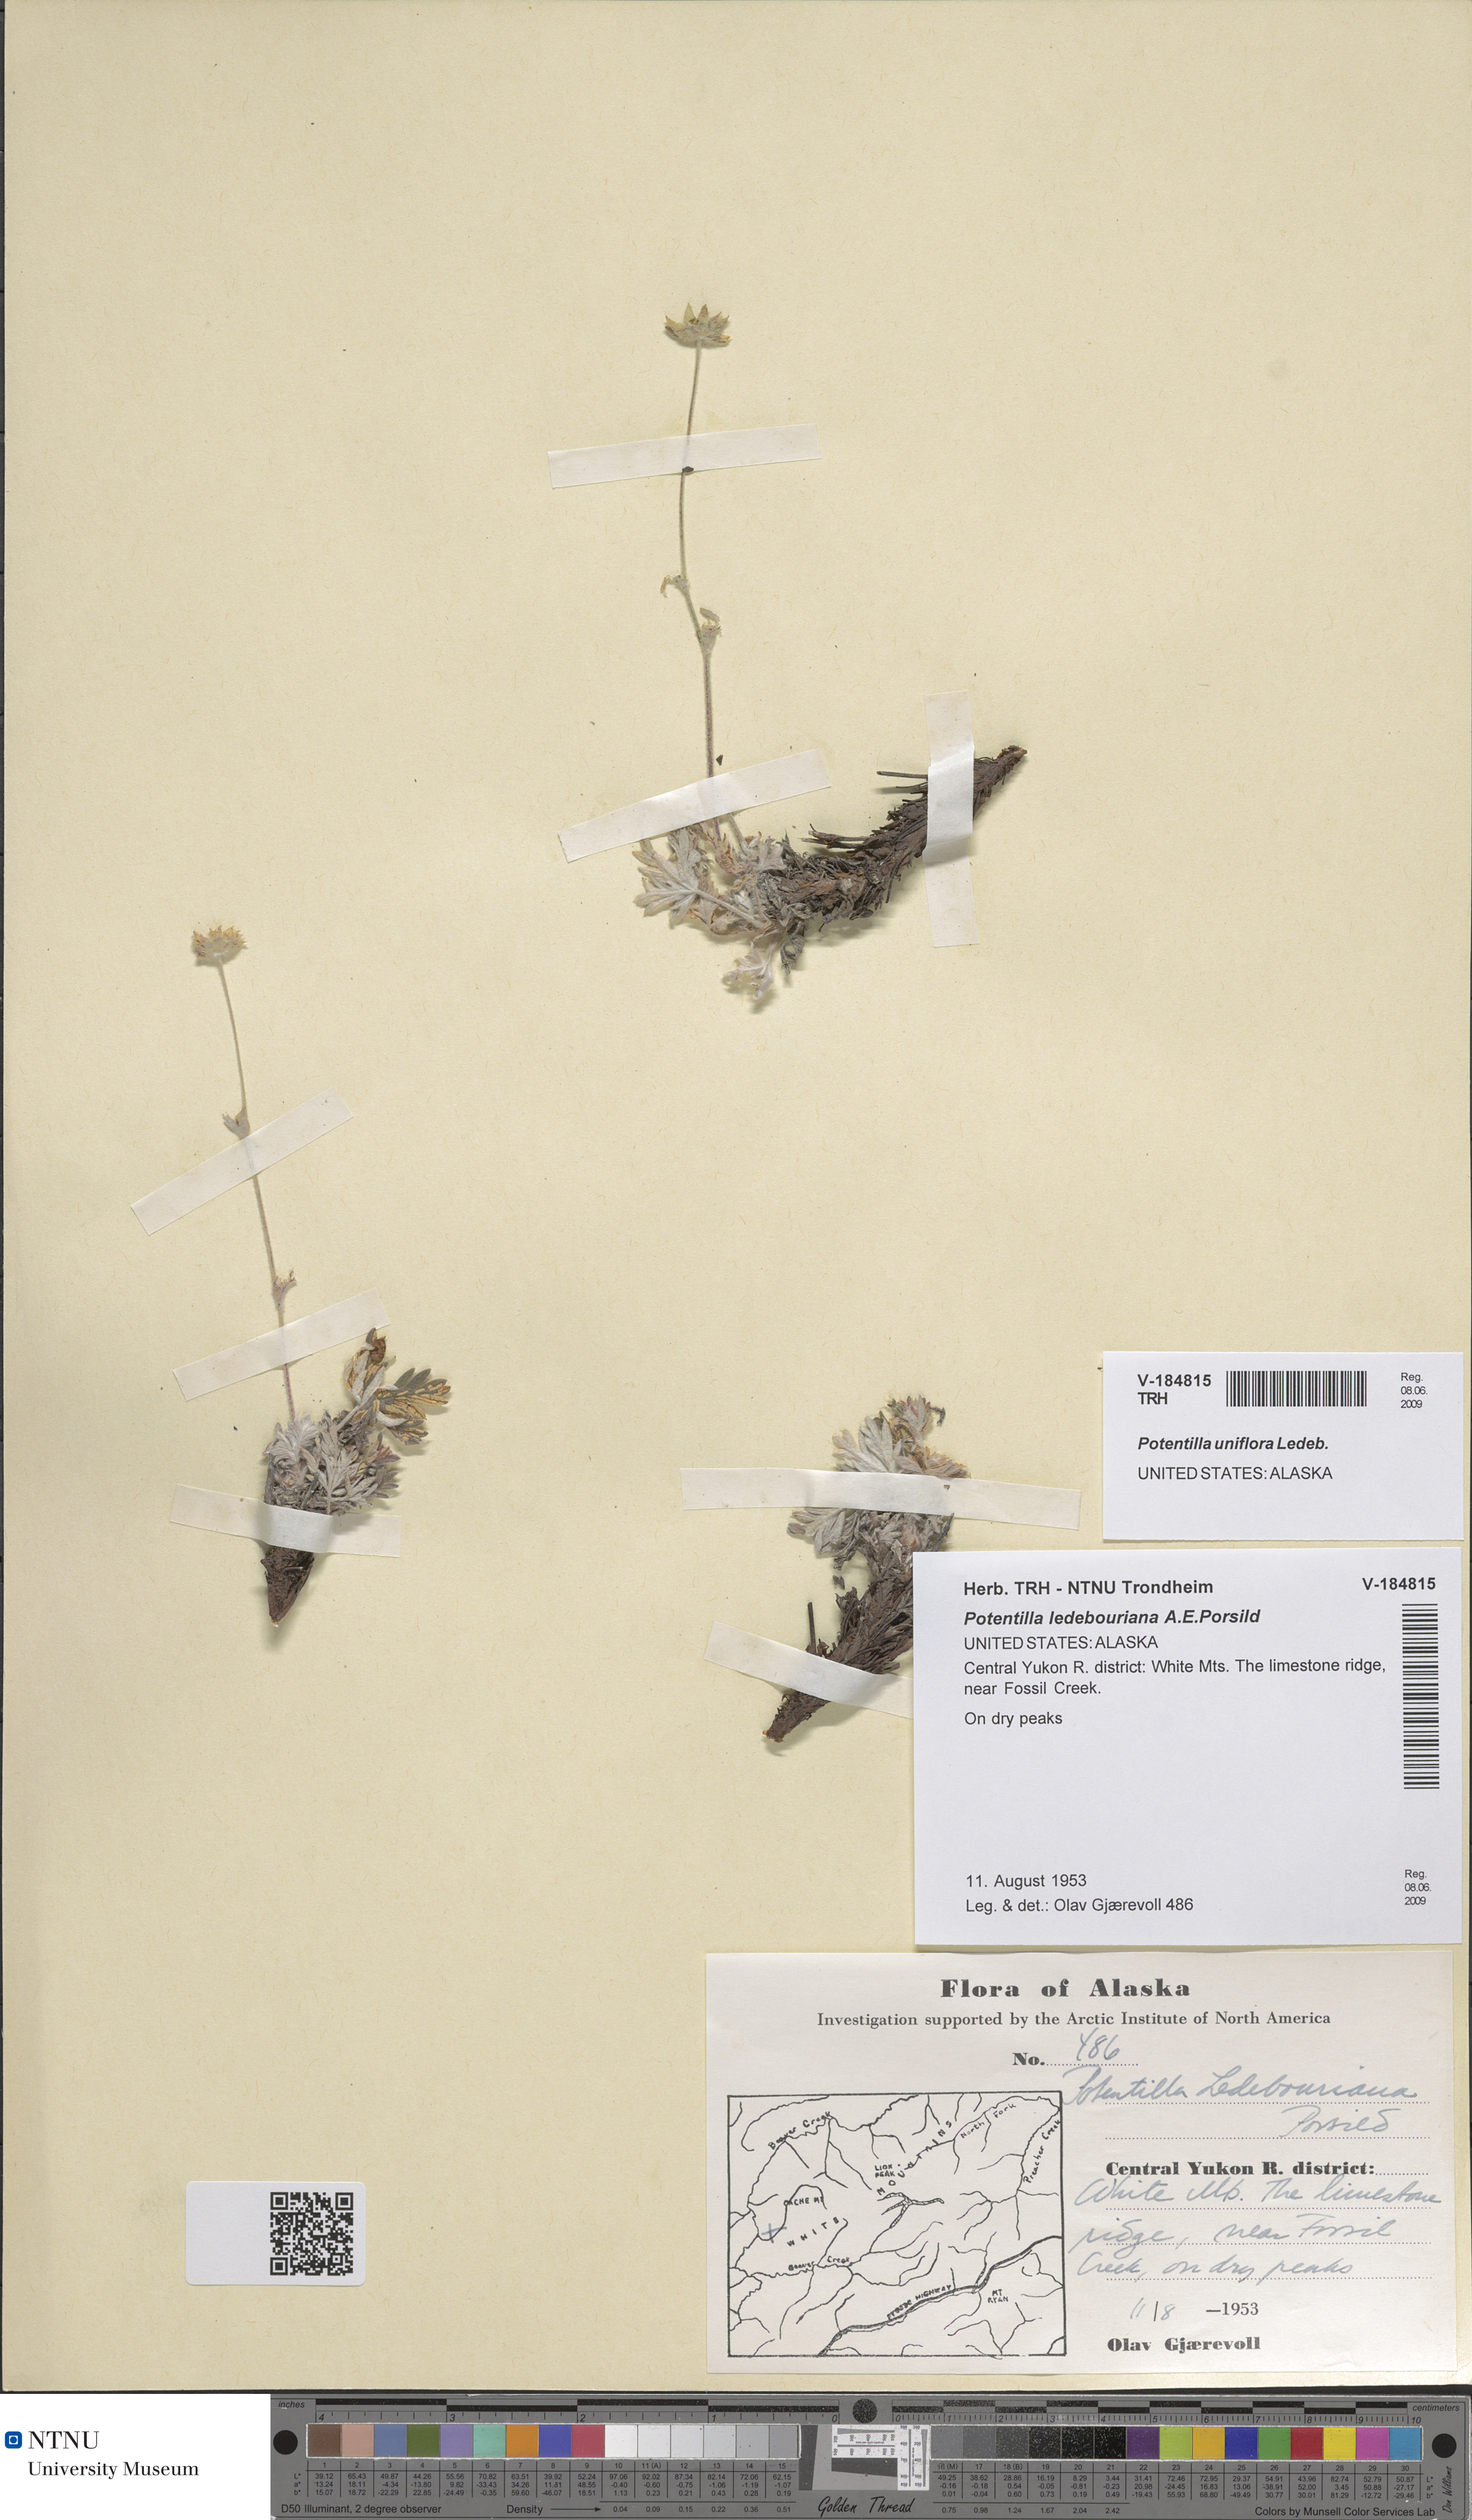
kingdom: Plantae
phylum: Tracheophyta
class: Magnoliopsida
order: Rosales
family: Rosaceae
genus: Potentilla
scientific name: Potentilla uniflora
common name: One-flowered cinquefoil
